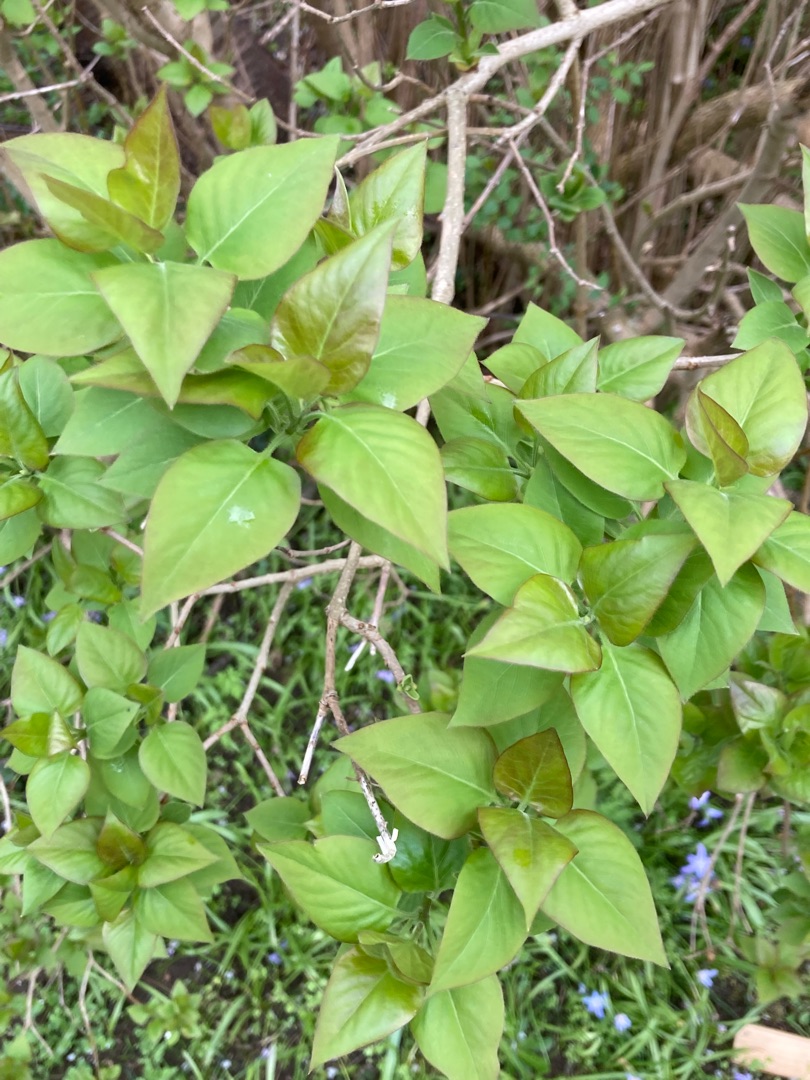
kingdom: Plantae
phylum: Tracheophyta
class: Magnoliopsida
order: Lamiales
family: Oleaceae
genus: Syringa
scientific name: Syringa vulgaris
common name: Syren
